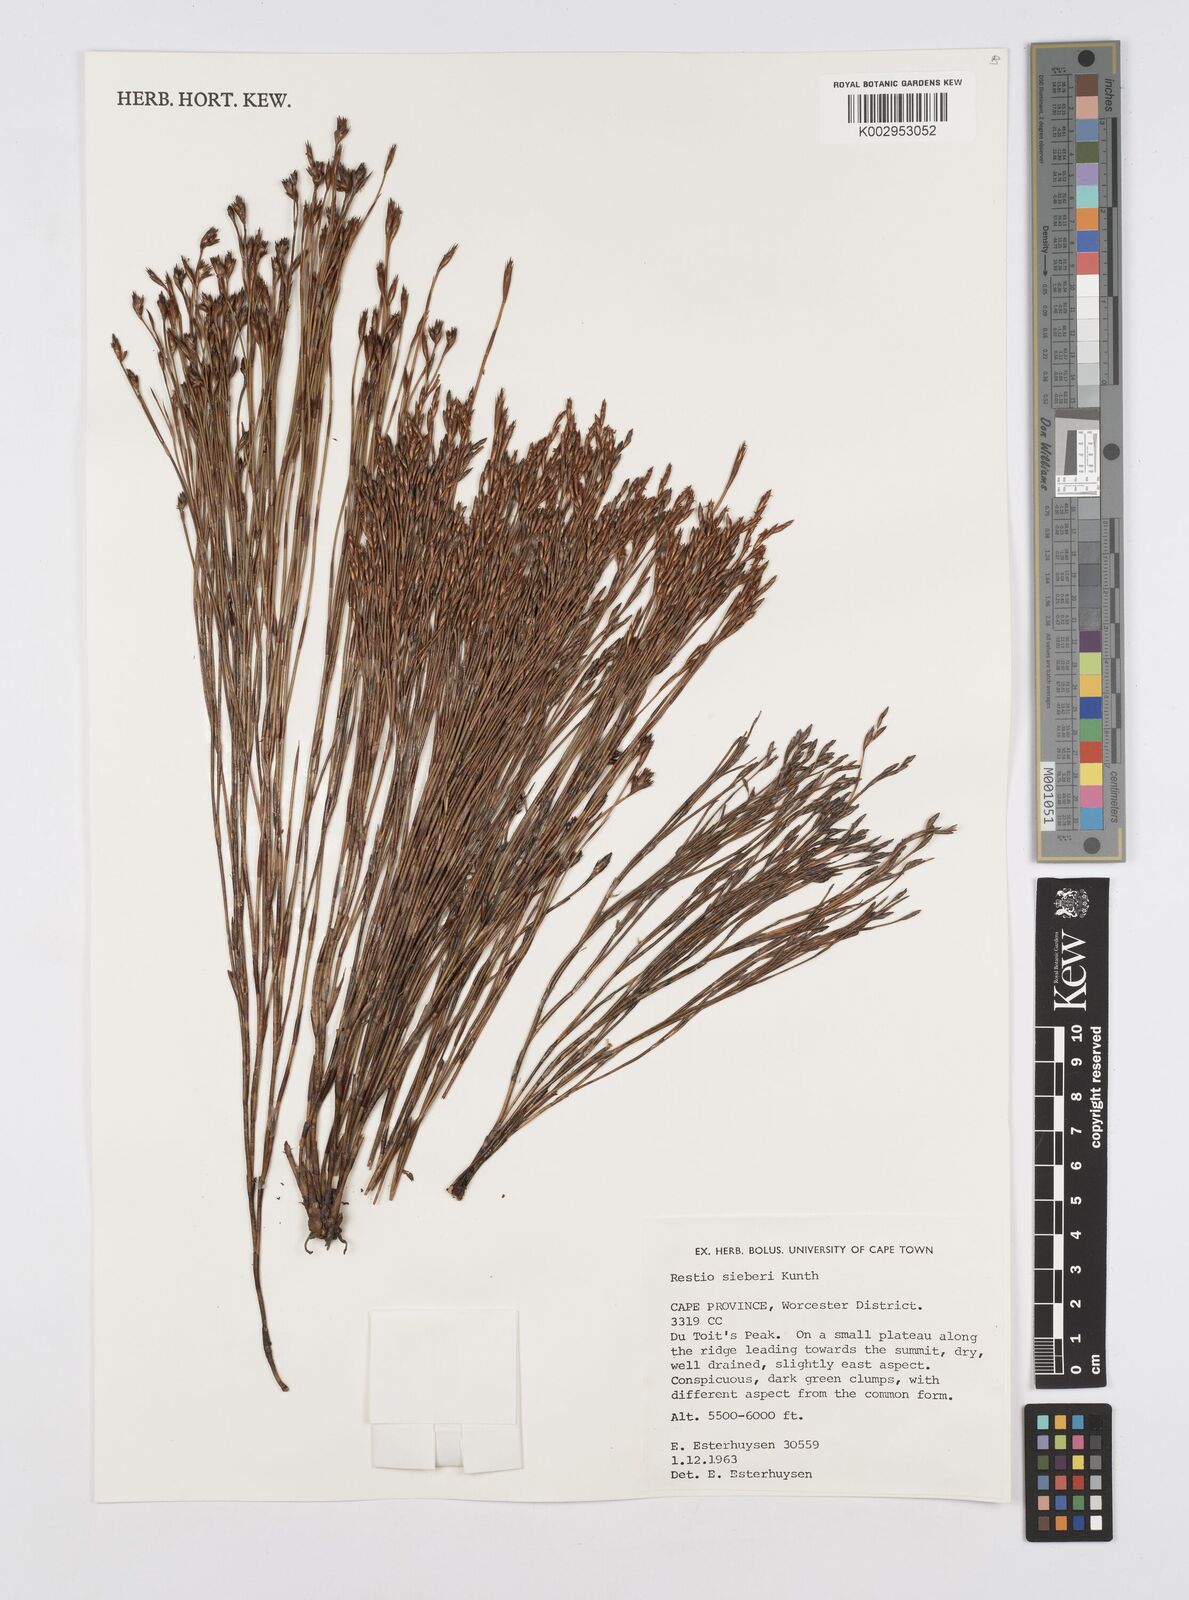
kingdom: Plantae
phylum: Tracheophyta
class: Liliopsida
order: Poales
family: Restionaceae
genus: Restio
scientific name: Restio sieberi
